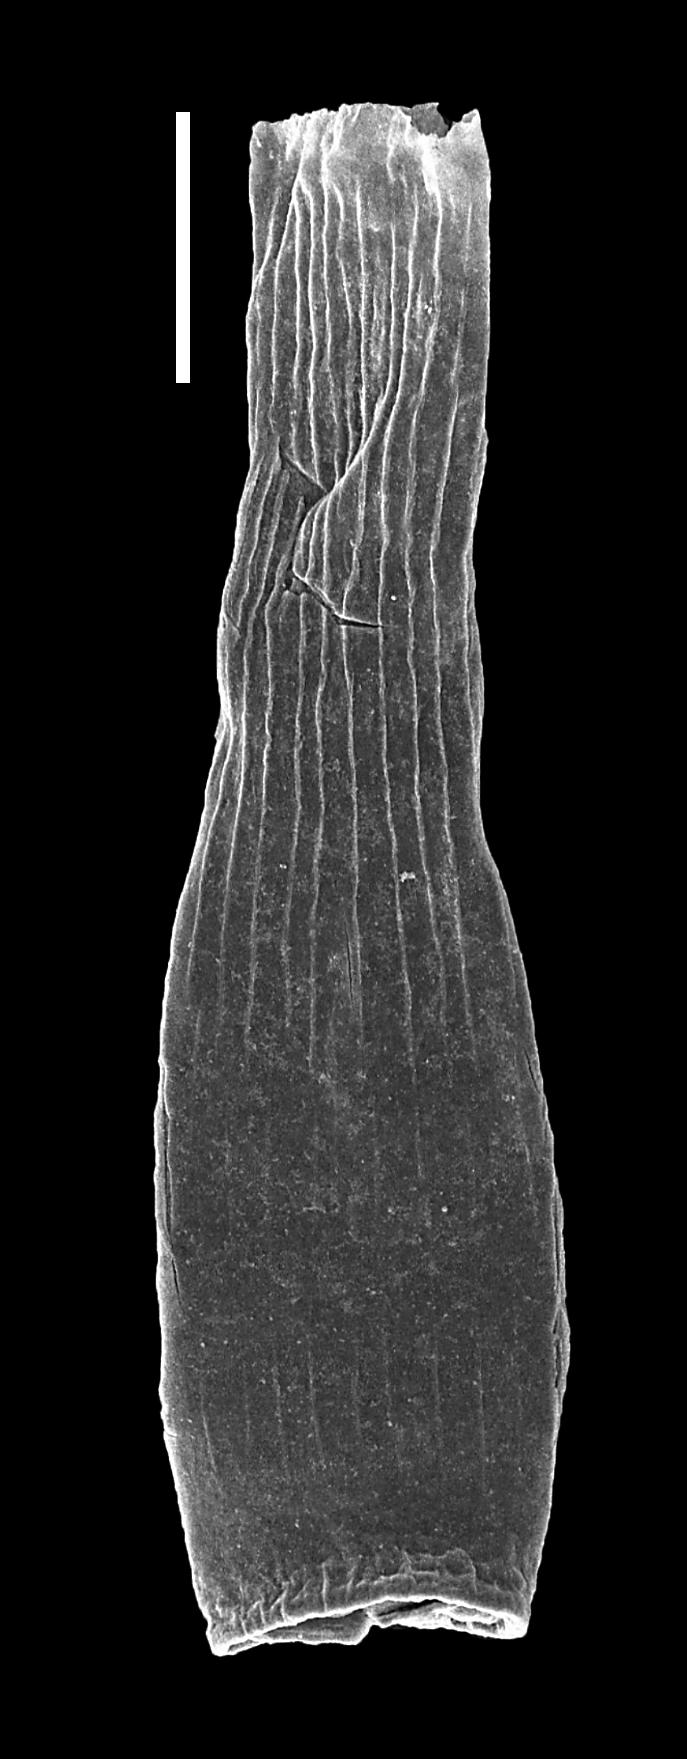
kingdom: Animalia
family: Conochitinidae
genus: Laufeldochitina
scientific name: Laufeldochitina
